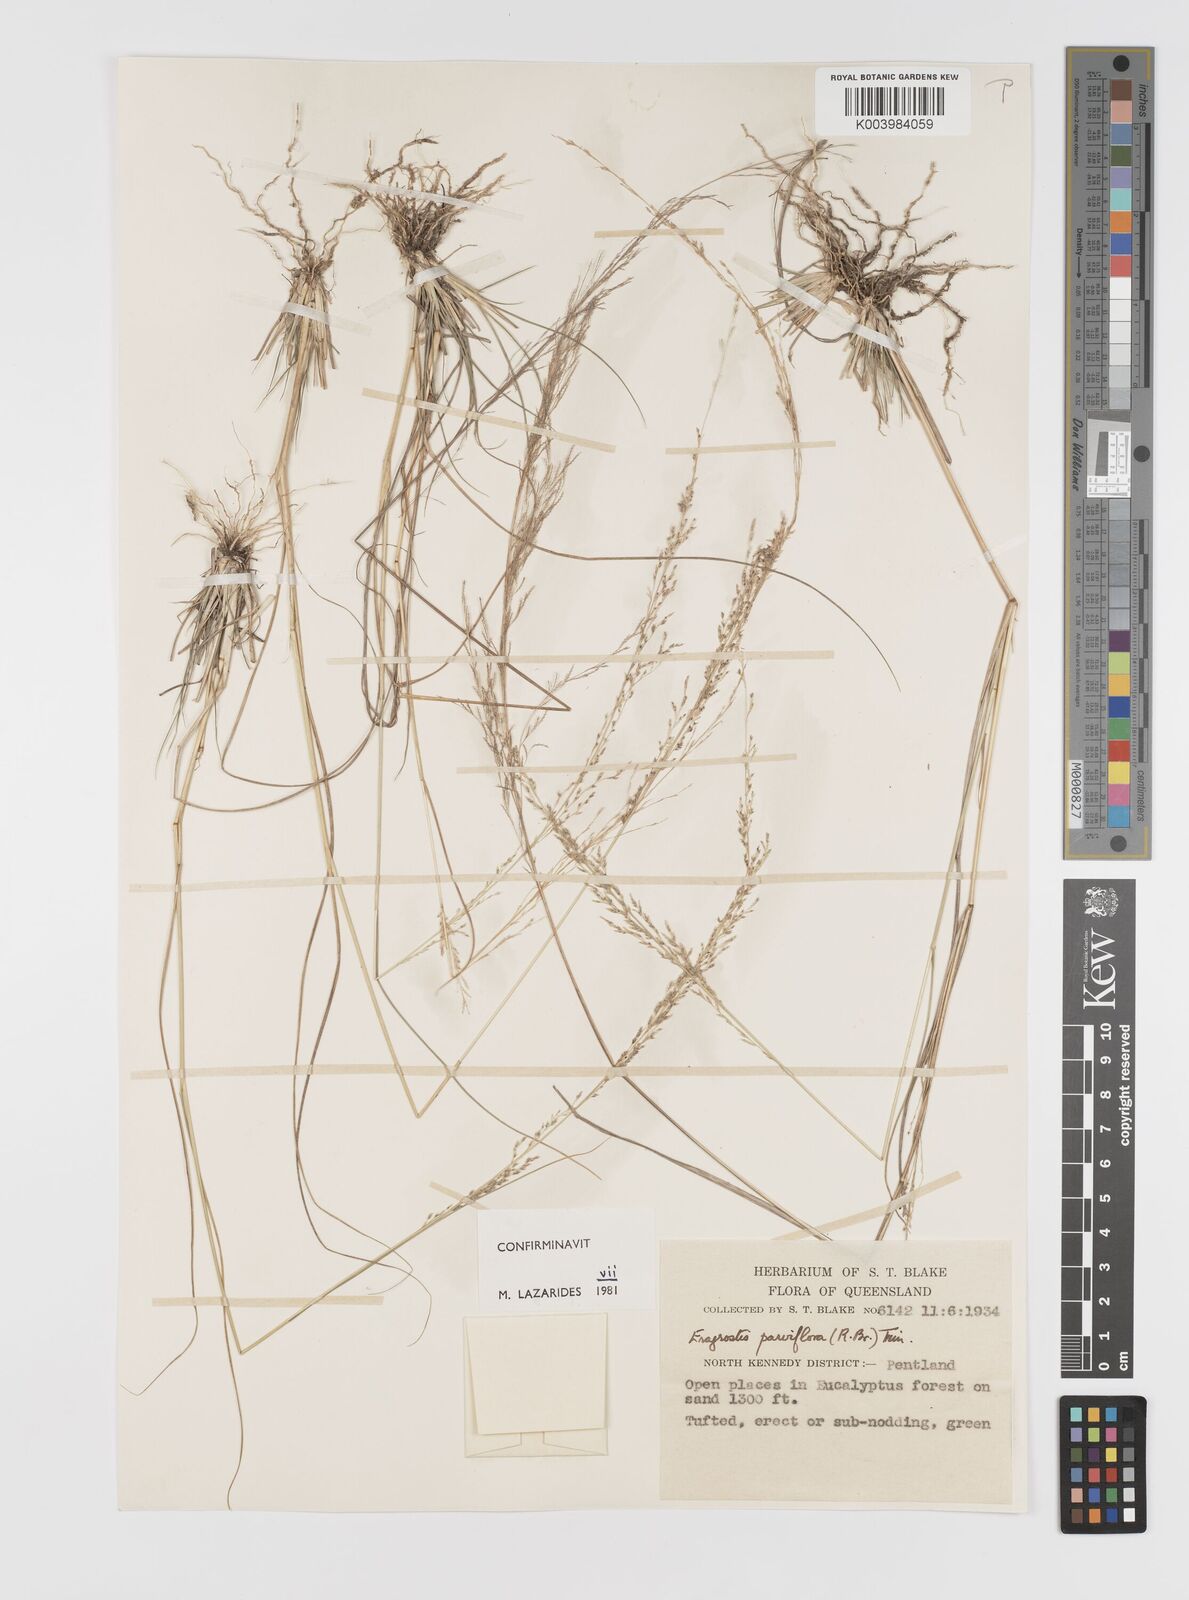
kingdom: Plantae
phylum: Tracheophyta
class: Liliopsida
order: Poales
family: Poaceae
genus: Eragrostis
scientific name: Eragrostis parviflora
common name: Weeping love-grass
